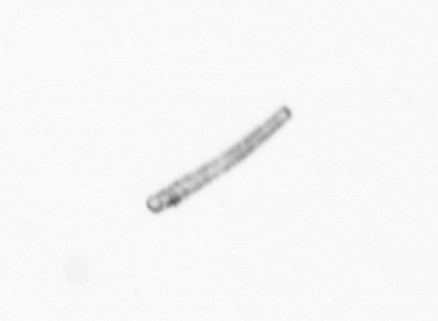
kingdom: Chromista
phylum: Ochrophyta
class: Bacillariophyceae
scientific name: Bacillariophyceae
